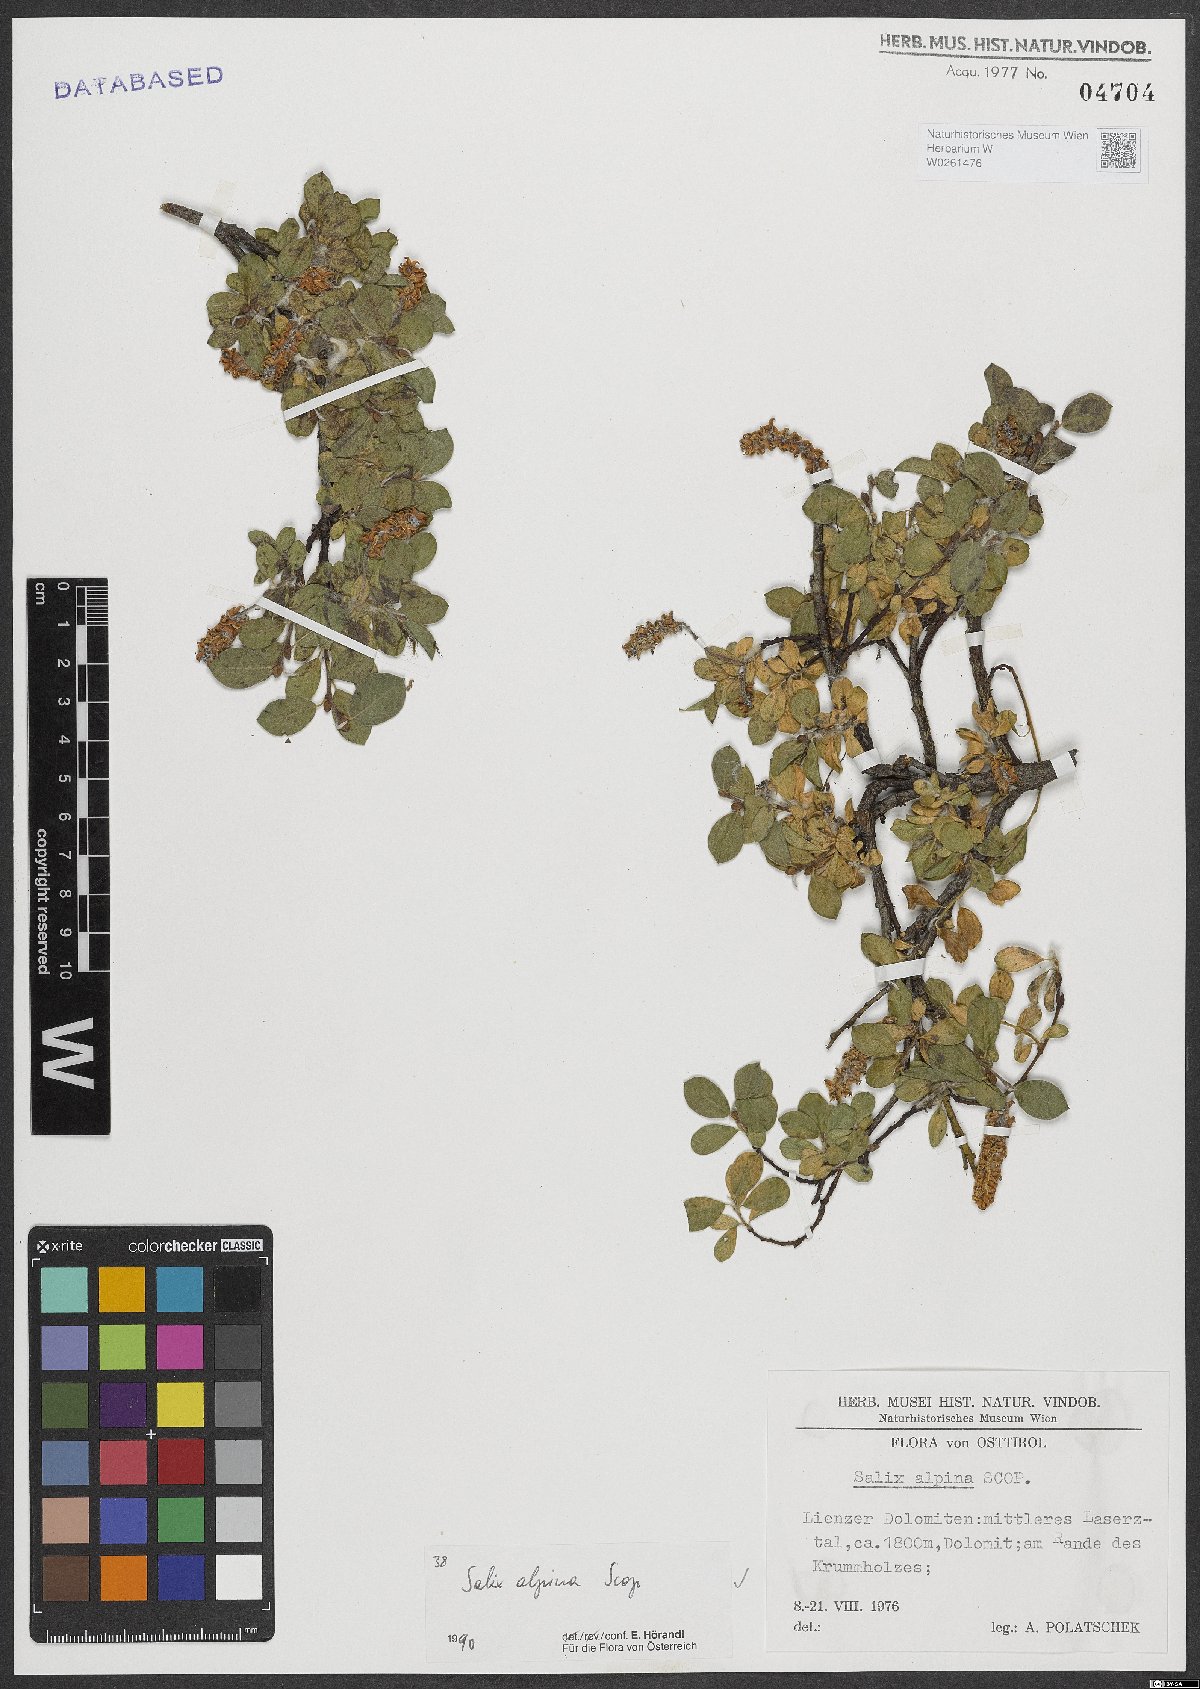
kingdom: Plantae
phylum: Tracheophyta
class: Magnoliopsida
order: Malpighiales
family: Salicaceae
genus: Salix
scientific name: Salix alpina
